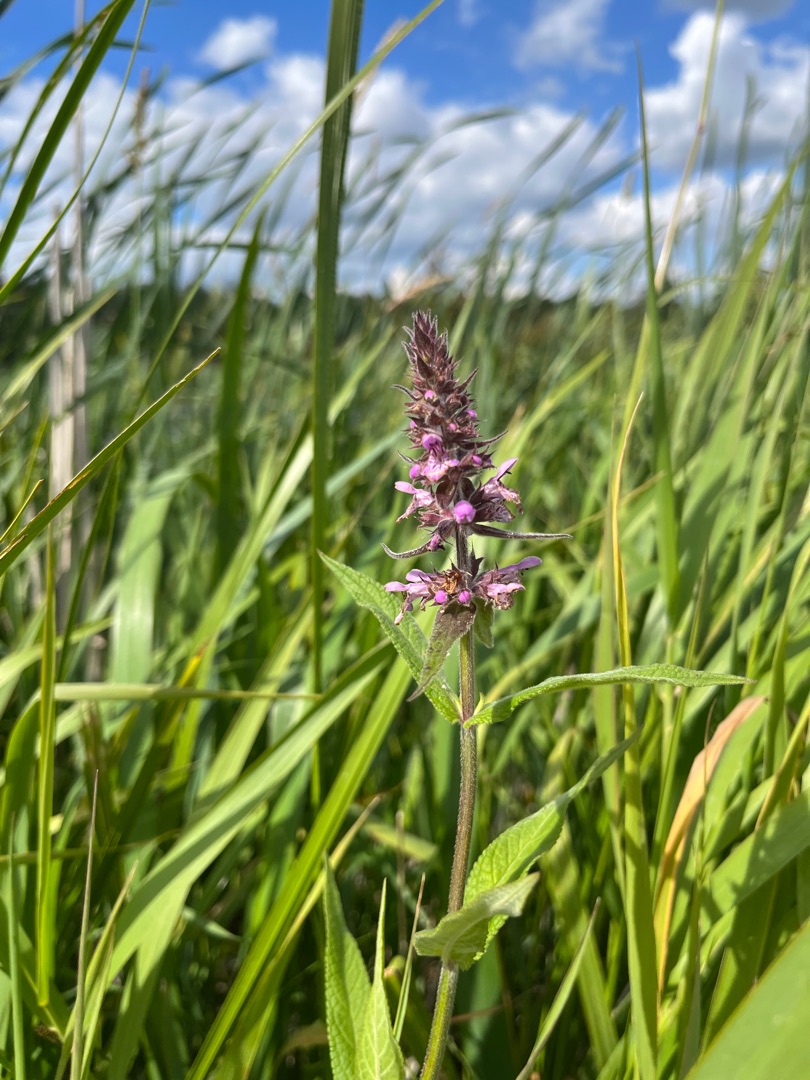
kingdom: Plantae
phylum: Tracheophyta
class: Magnoliopsida
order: Lamiales
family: Lamiaceae
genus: Stachys
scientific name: Stachys palustris
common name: Kær-galtetand
